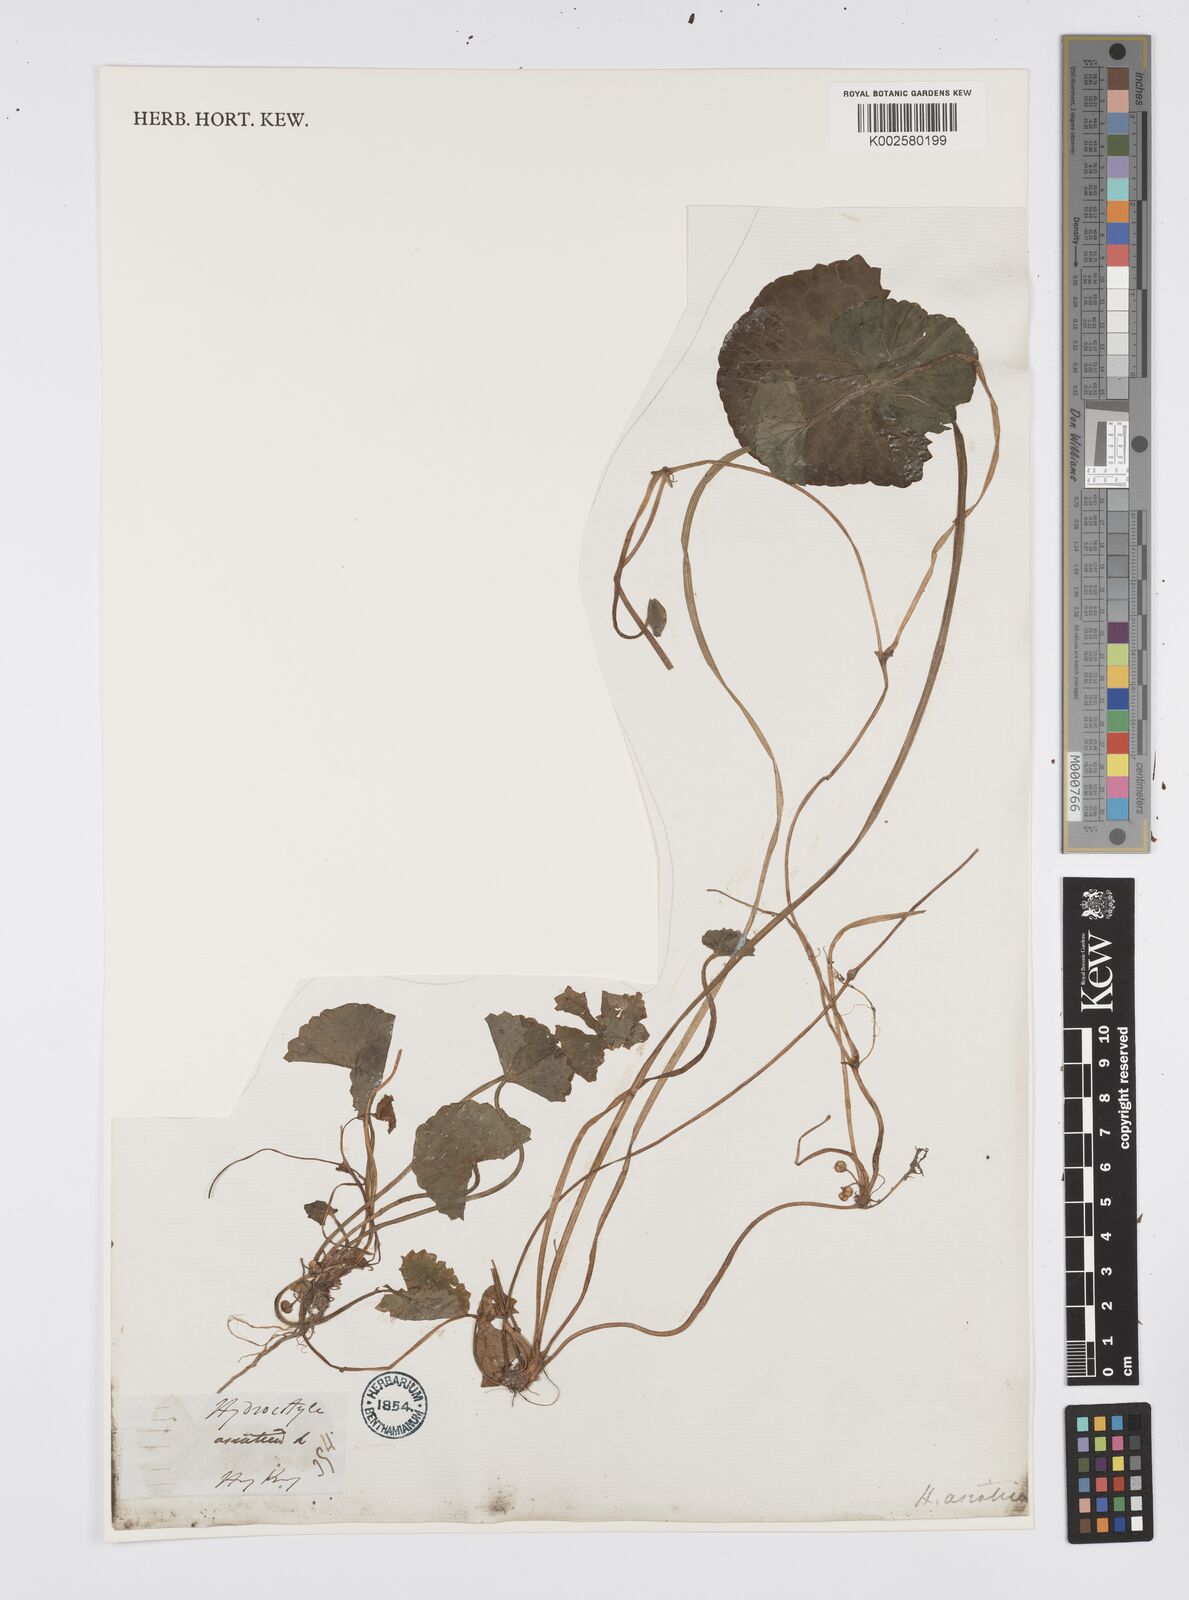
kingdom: Plantae
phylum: Tracheophyta
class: Magnoliopsida
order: Apiales
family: Apiaceae
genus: Centella
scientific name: Centella
